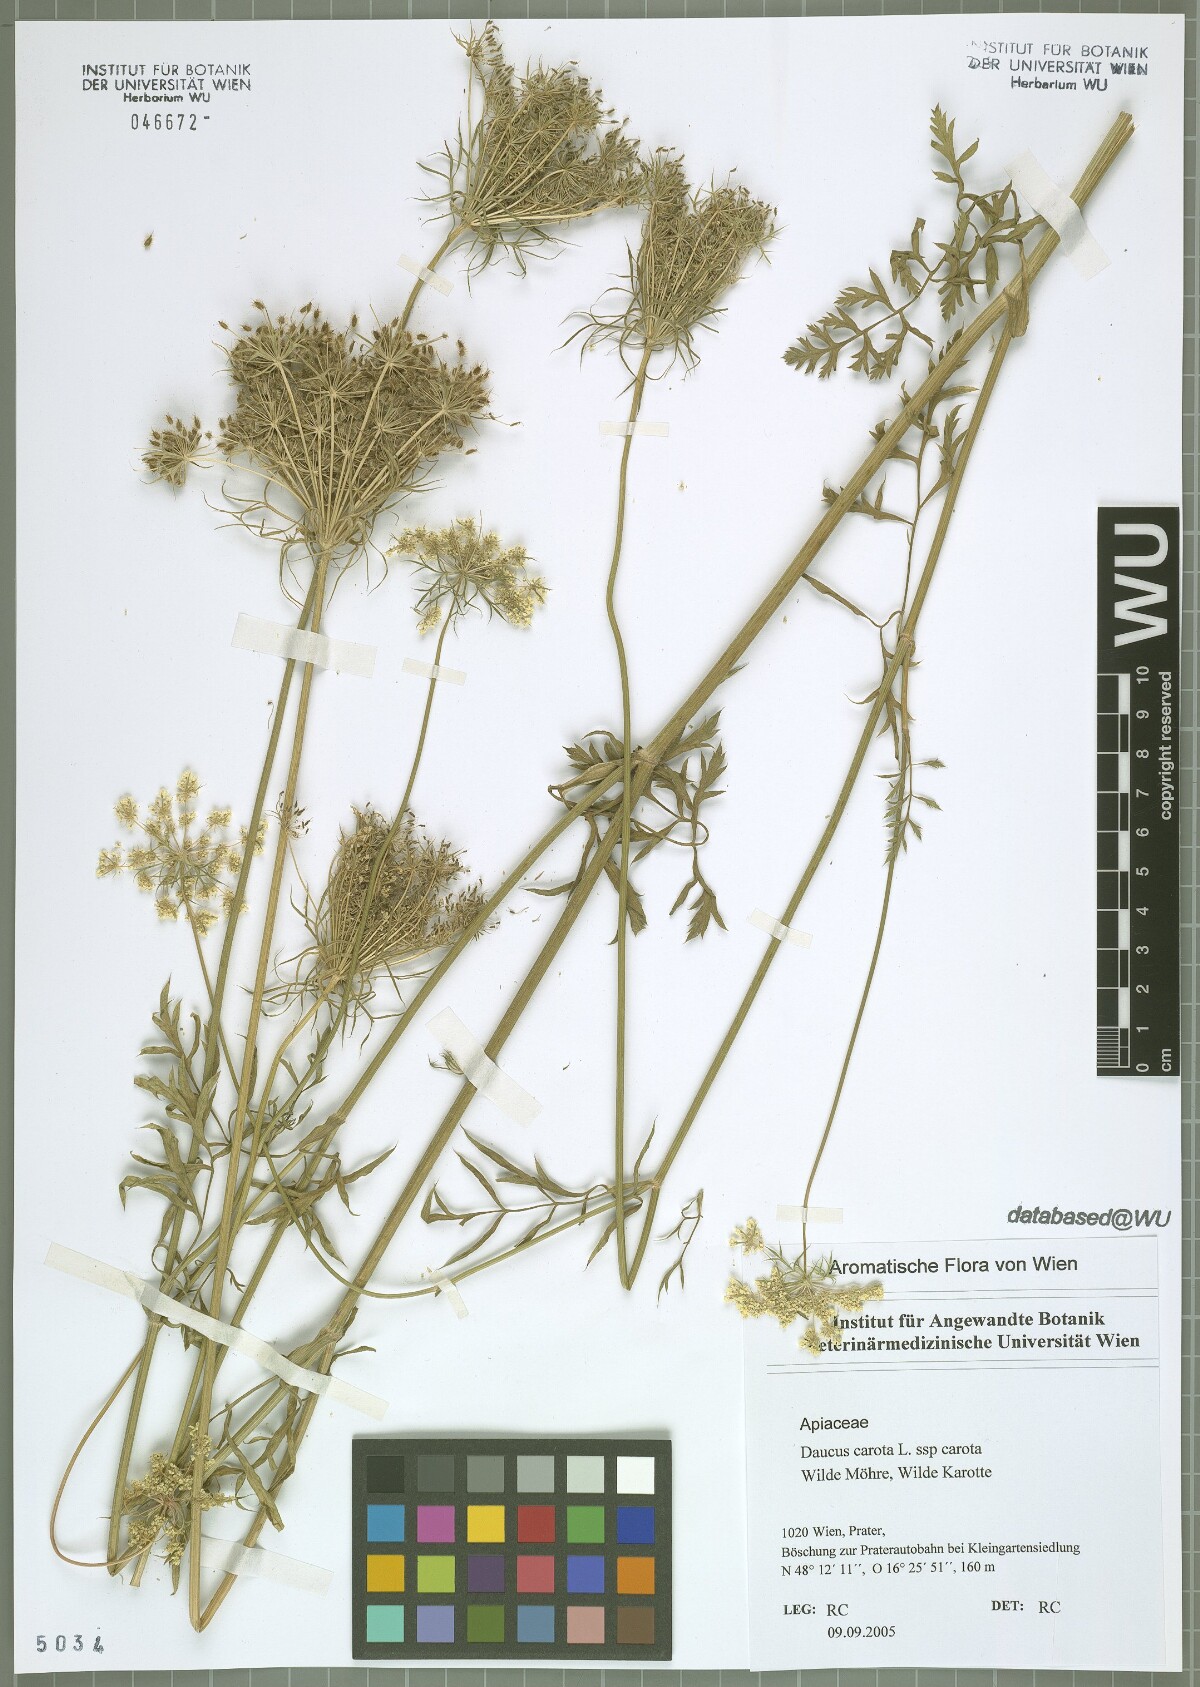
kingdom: Plantae
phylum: Tracheophyta
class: Magnoliopsida
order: Apiales
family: Apiaceae
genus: Daucus
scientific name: Daucus carota
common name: Wild carrot
